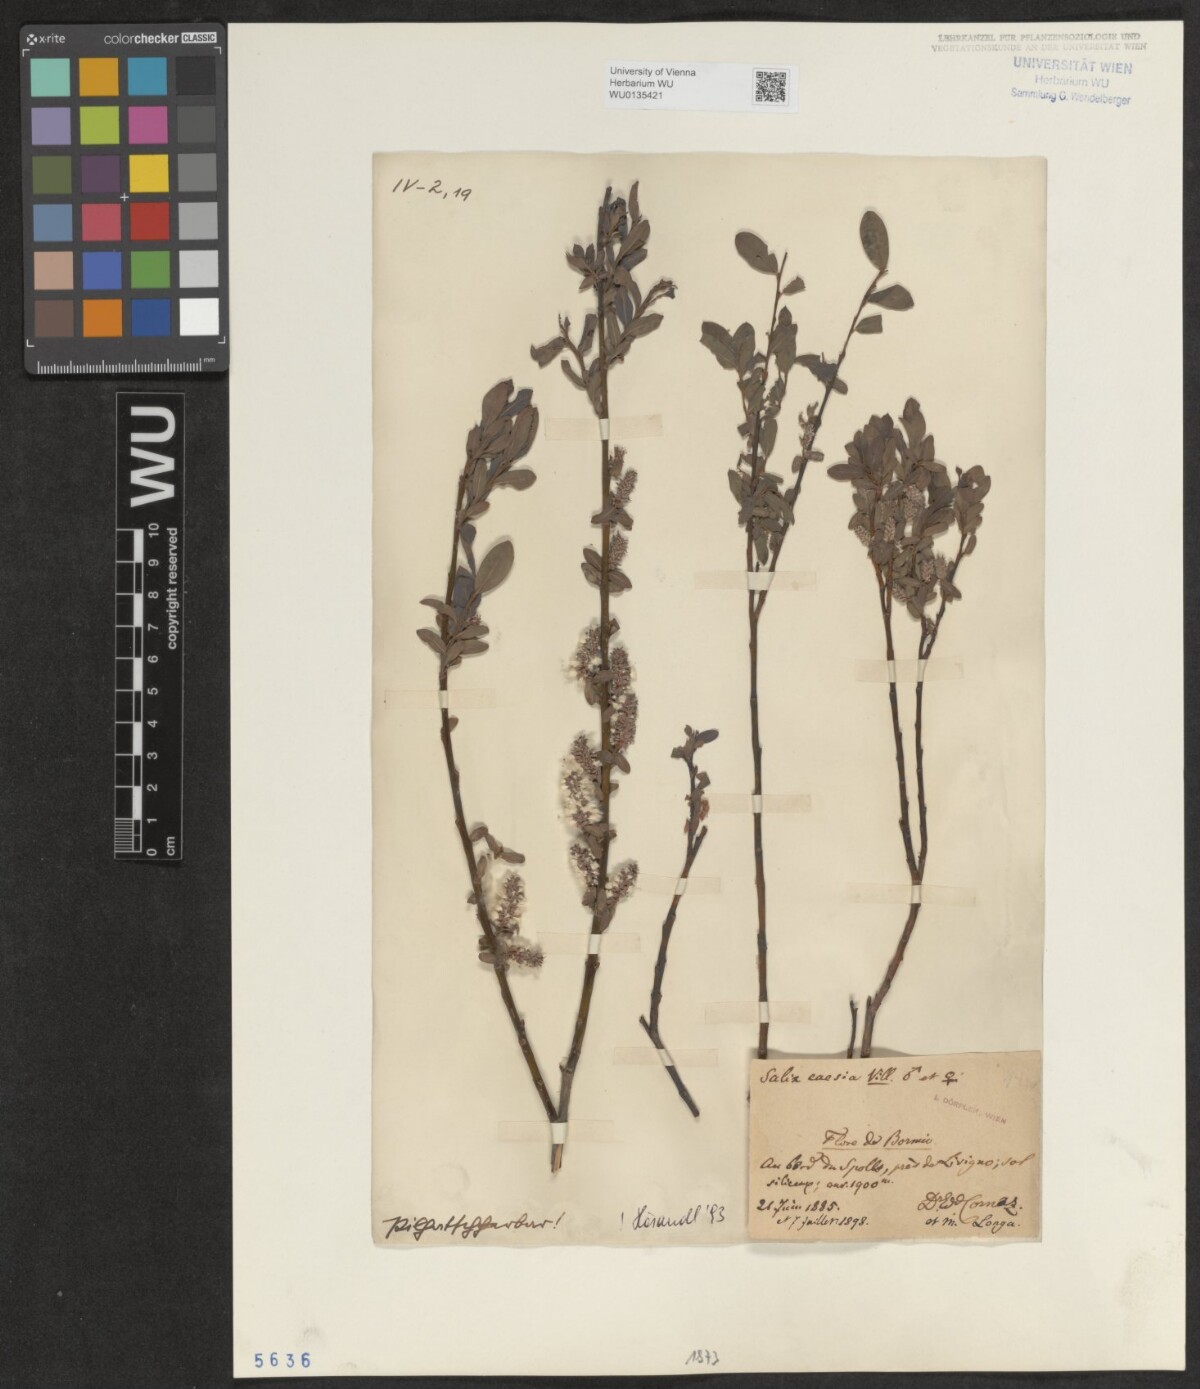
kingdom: Plantae
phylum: Tracheophyta
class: Magnoliopsida
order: Malpighiales
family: Salicaceae
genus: Salix
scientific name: Salix caesia
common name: Blue willow
